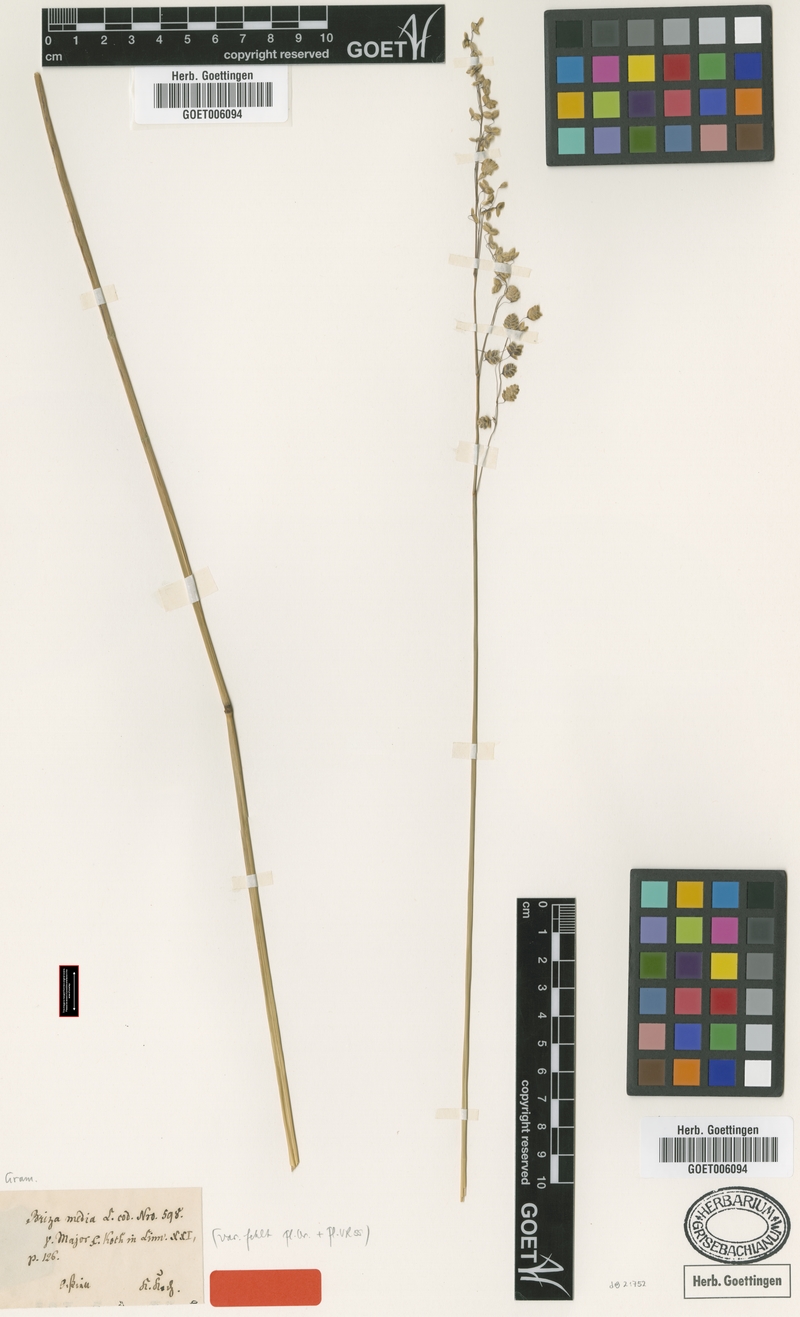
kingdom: Plantae
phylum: Tracheophyta
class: Liliopsida
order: Poales
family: Poaceae
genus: Briza
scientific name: Briza media
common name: Quaking grass
